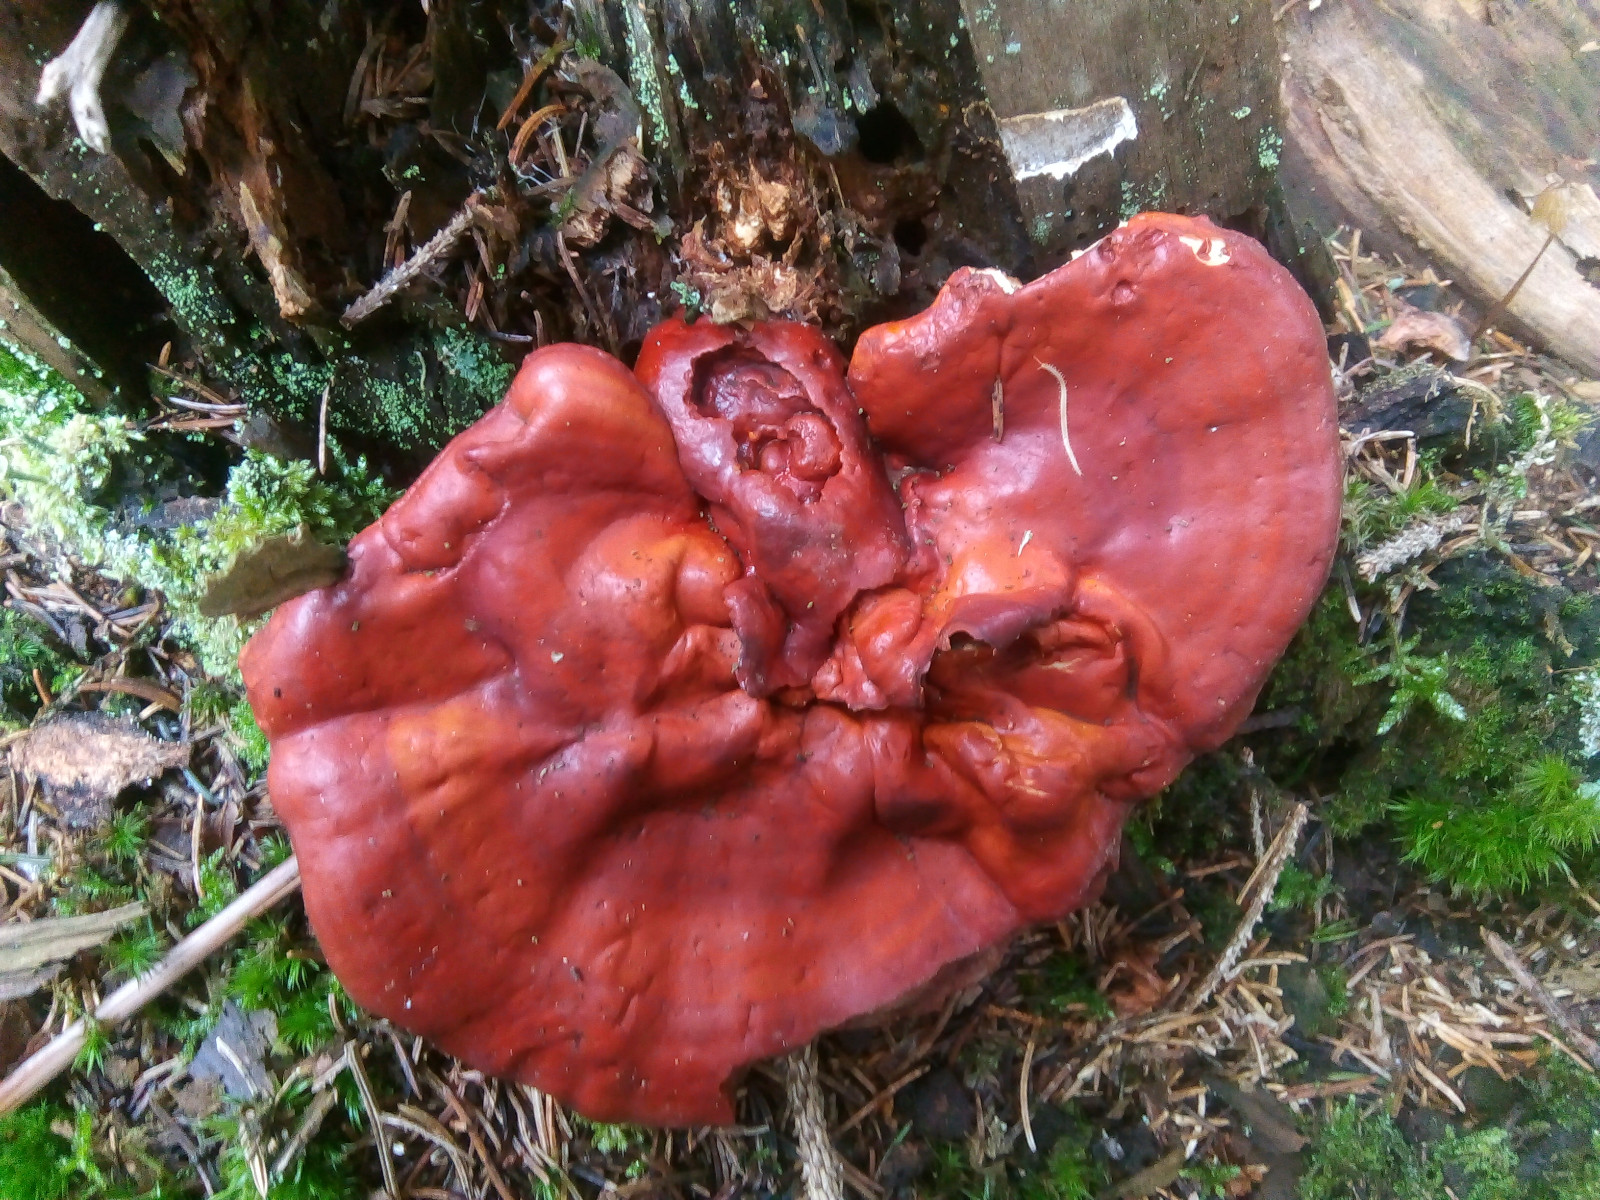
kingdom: Fungi
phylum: Basidiomycota
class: Agaricomycetes
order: Polyporales
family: Polyporaceae
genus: Ganoderma
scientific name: Ganoderma lucidum
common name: skinnende lakporesvamp
